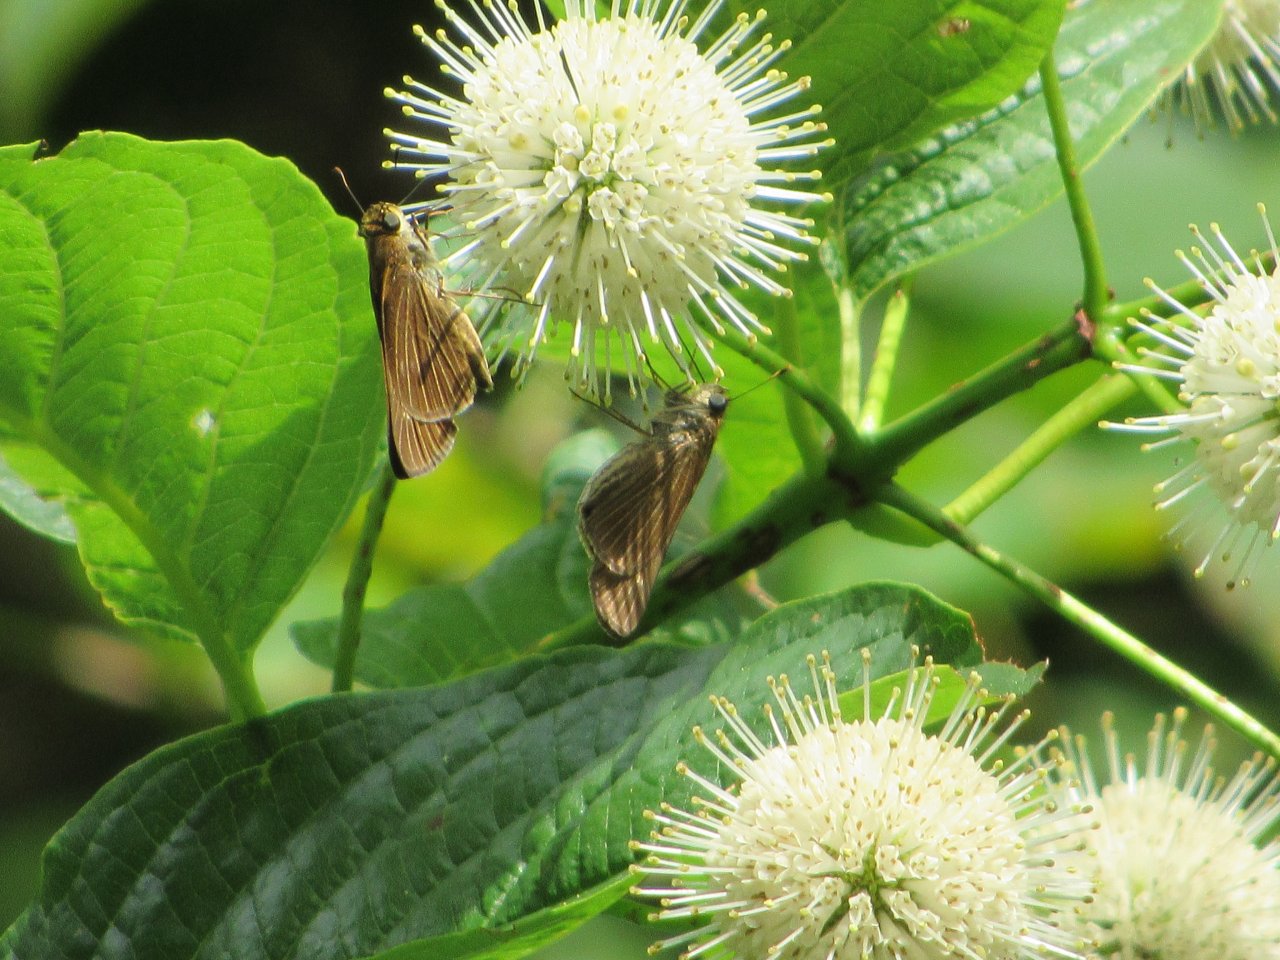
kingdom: Animalia
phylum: Arthropoda
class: Insecta
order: Lepidoptera
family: Hesperiidae
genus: Panoquina
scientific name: Panoquina ocola
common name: Ocola Skipper
